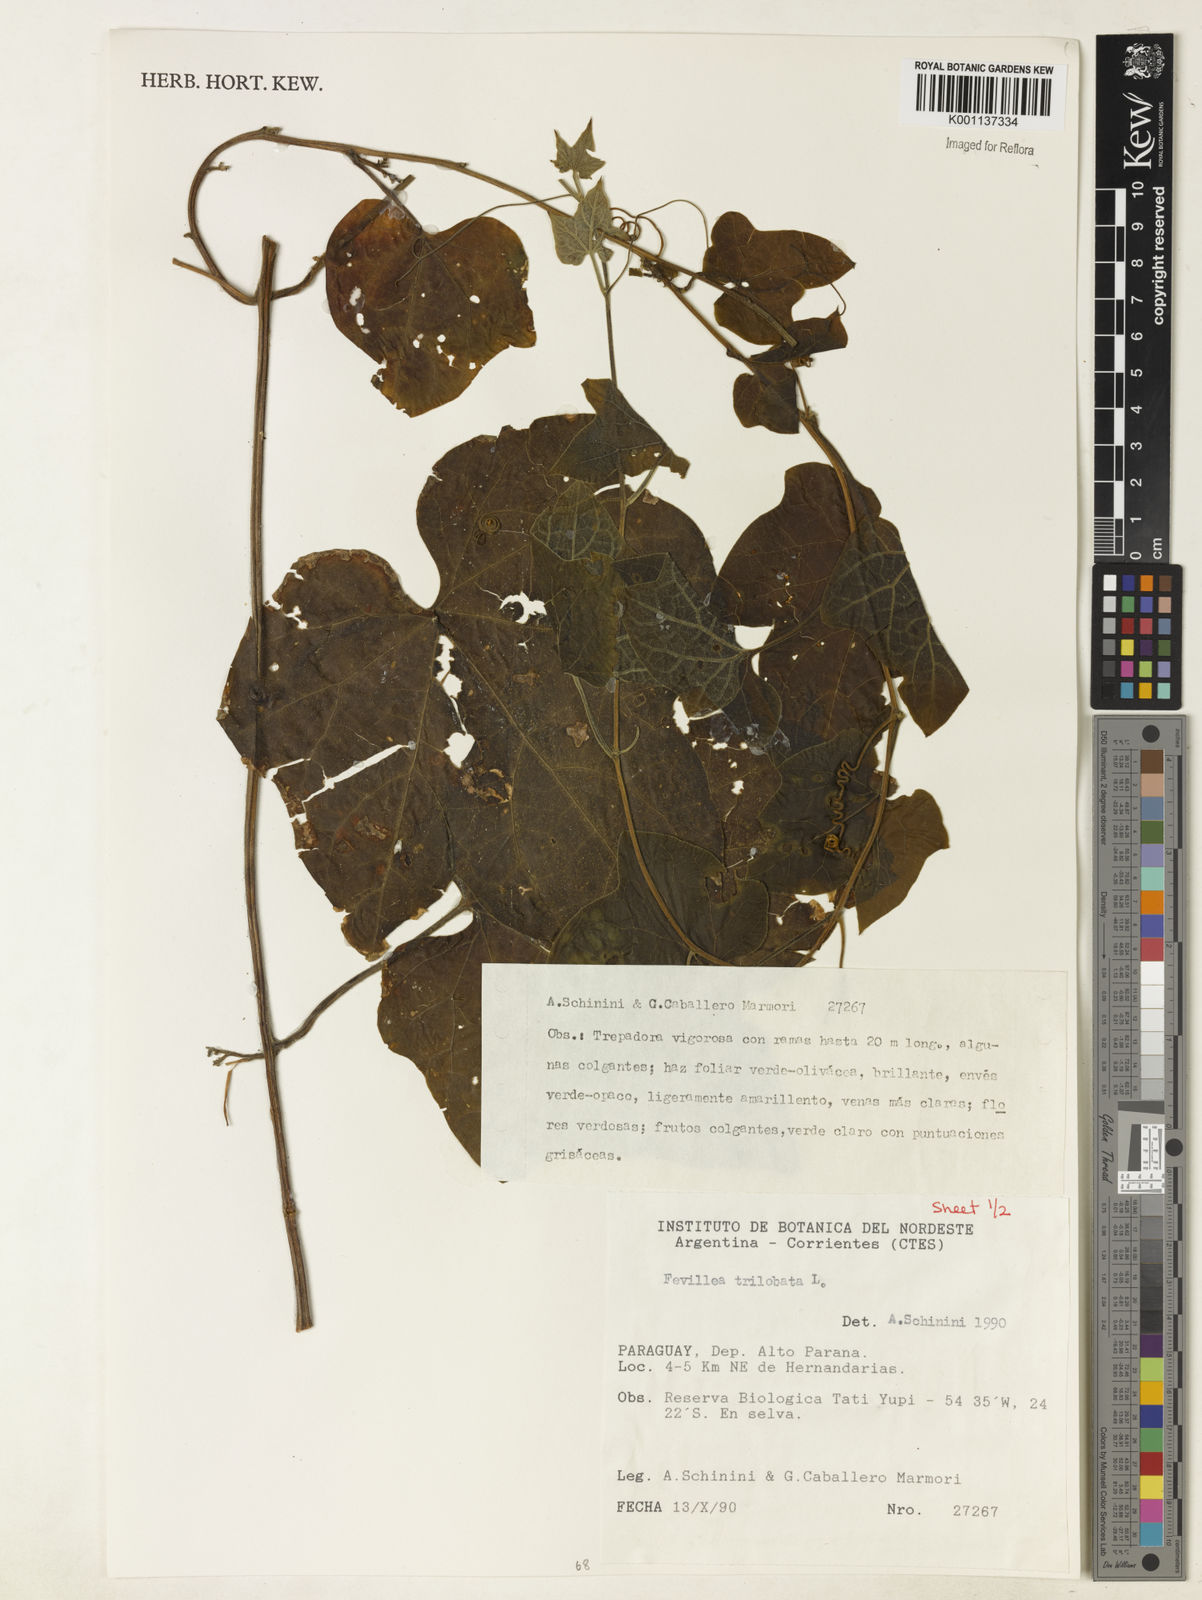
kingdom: Plantae
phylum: Tracheophyta
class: Magnoliopsida
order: Cucurbitales
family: Cucurbitaceae
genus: Fevillea
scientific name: Fevillea trilobata
